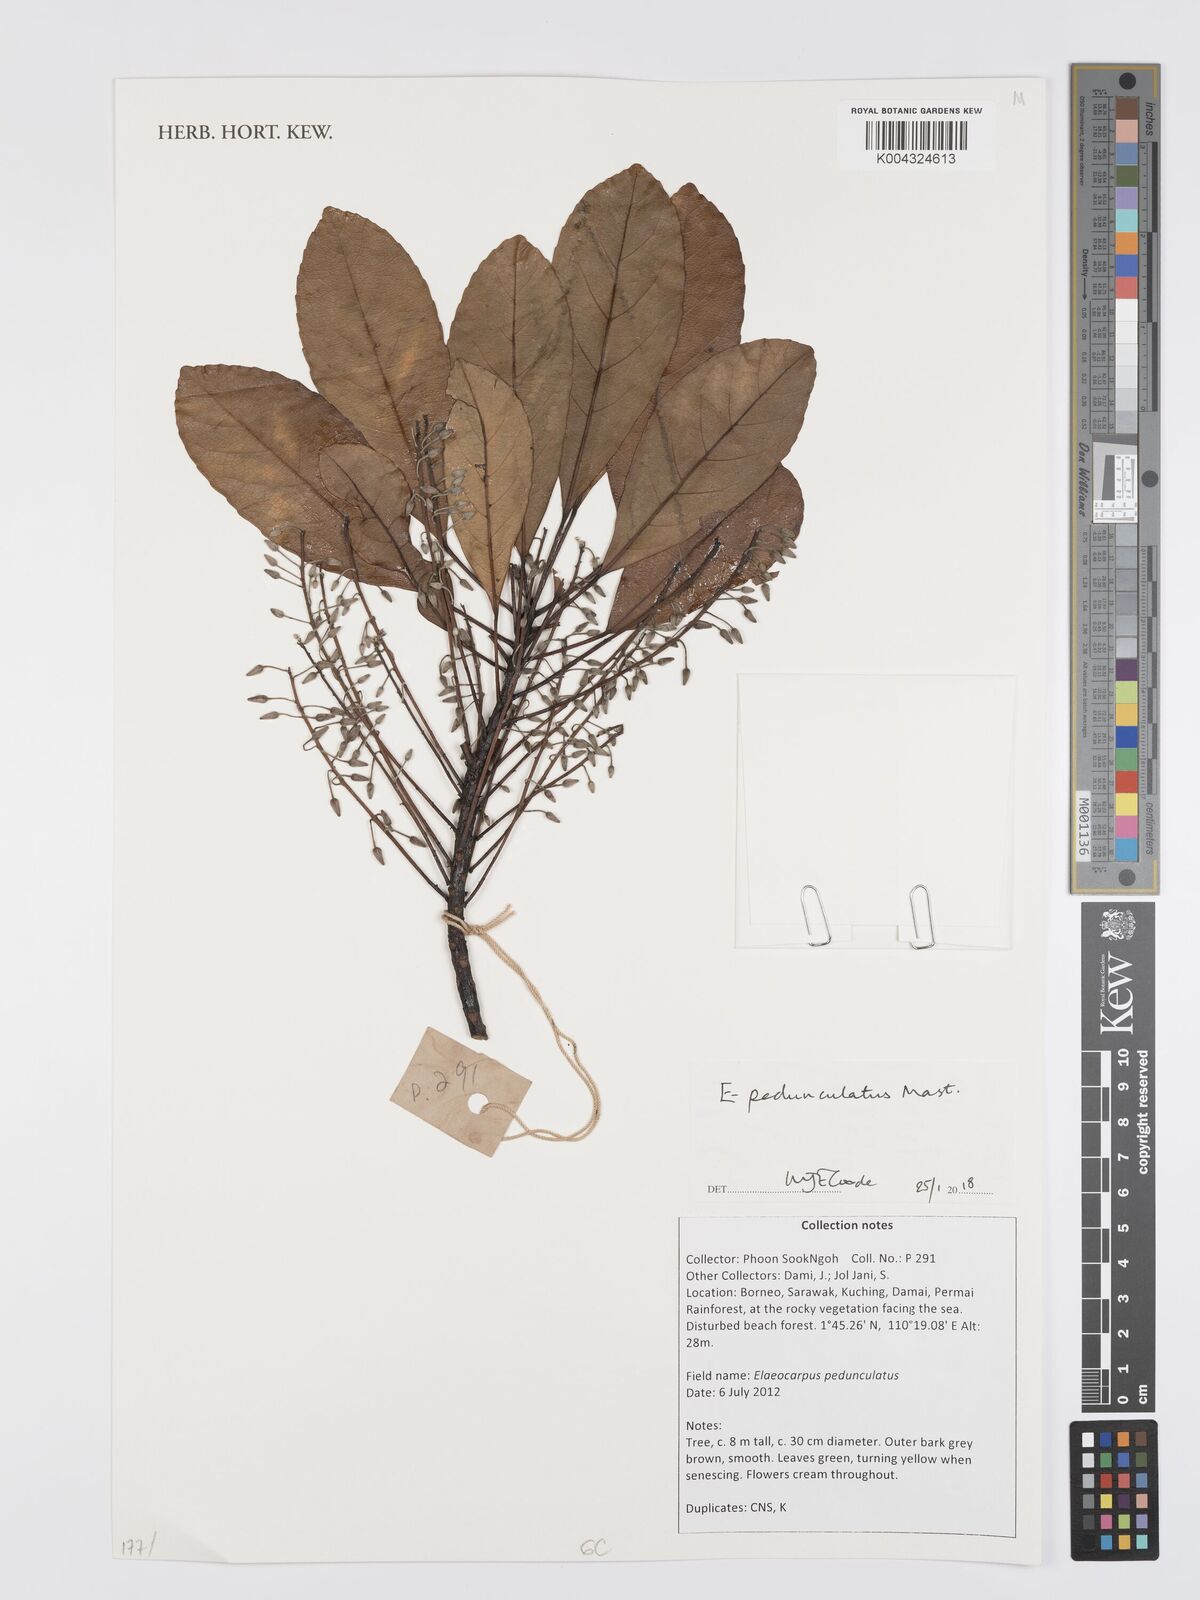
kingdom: Plantae
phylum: Tracheophyta
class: Magnoliopsida
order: Oxalidales
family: Elaeocarpaceae
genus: Elaeocarpus
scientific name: Elaeocarpus pedunculatus
